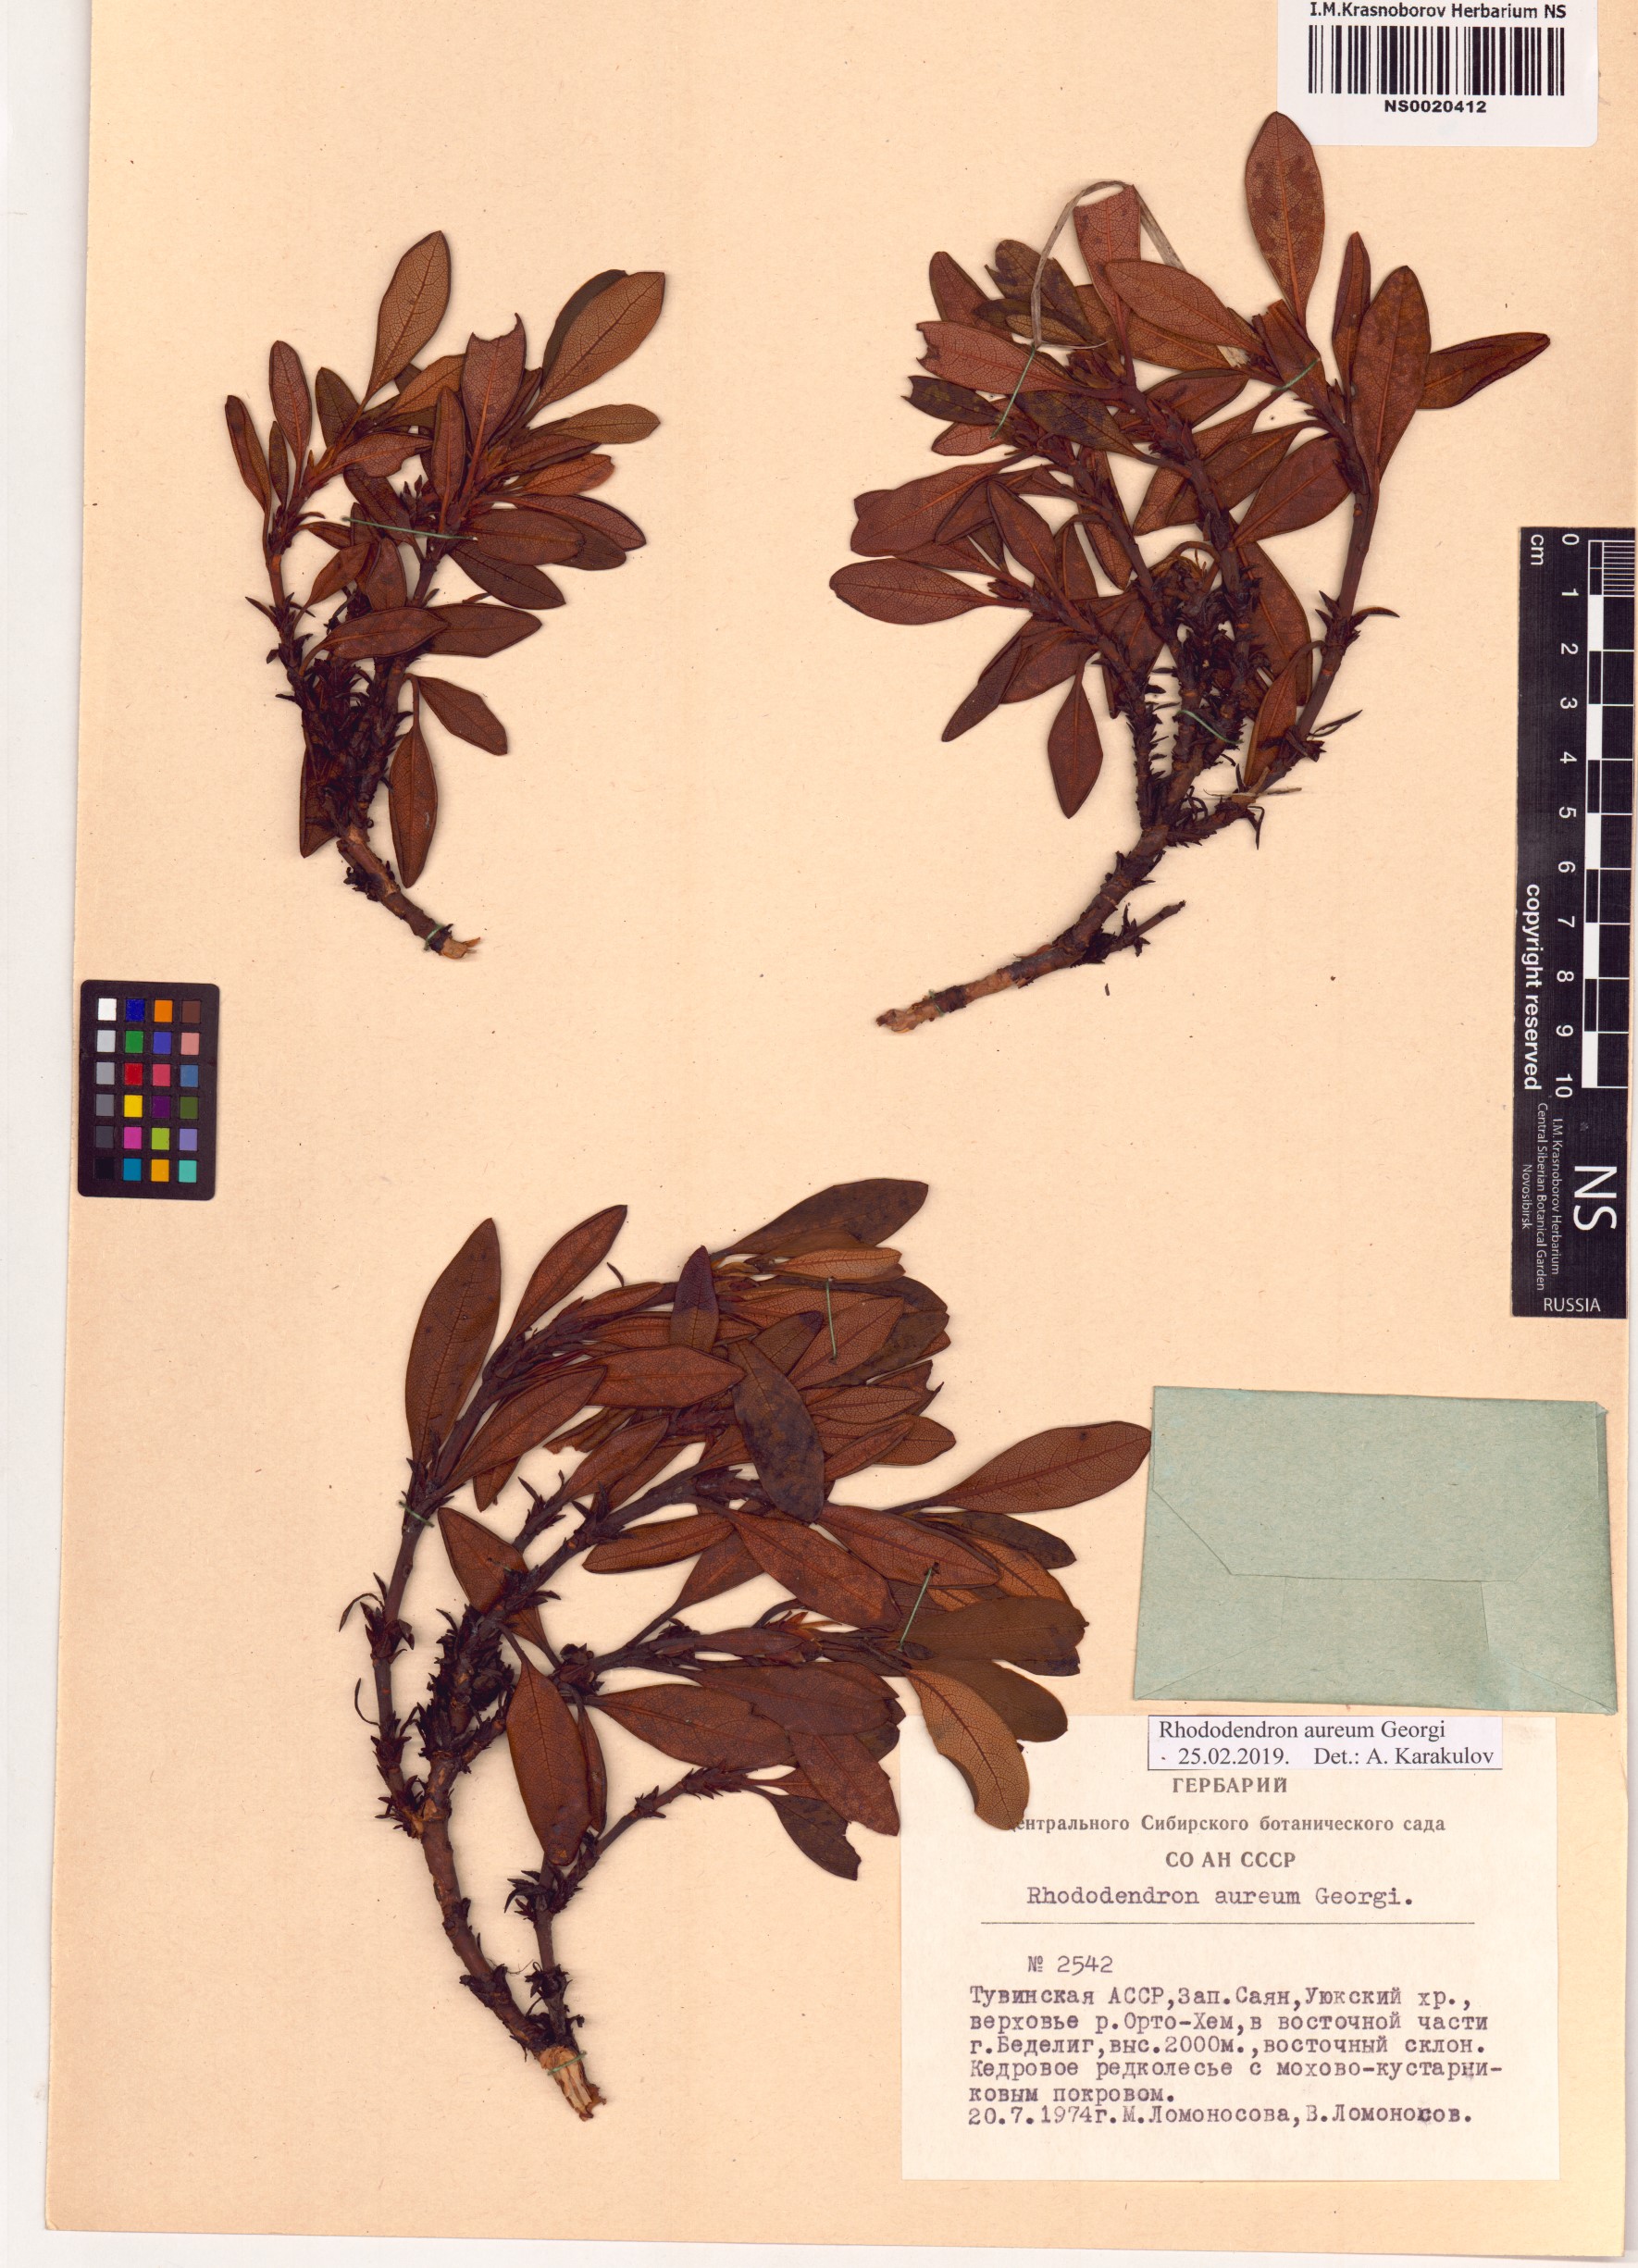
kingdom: Plantae
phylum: Tracheophyta
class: Magnoliopsida
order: Ericales
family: Ericaceae
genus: Rhododendron
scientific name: Rhododendron aureum
